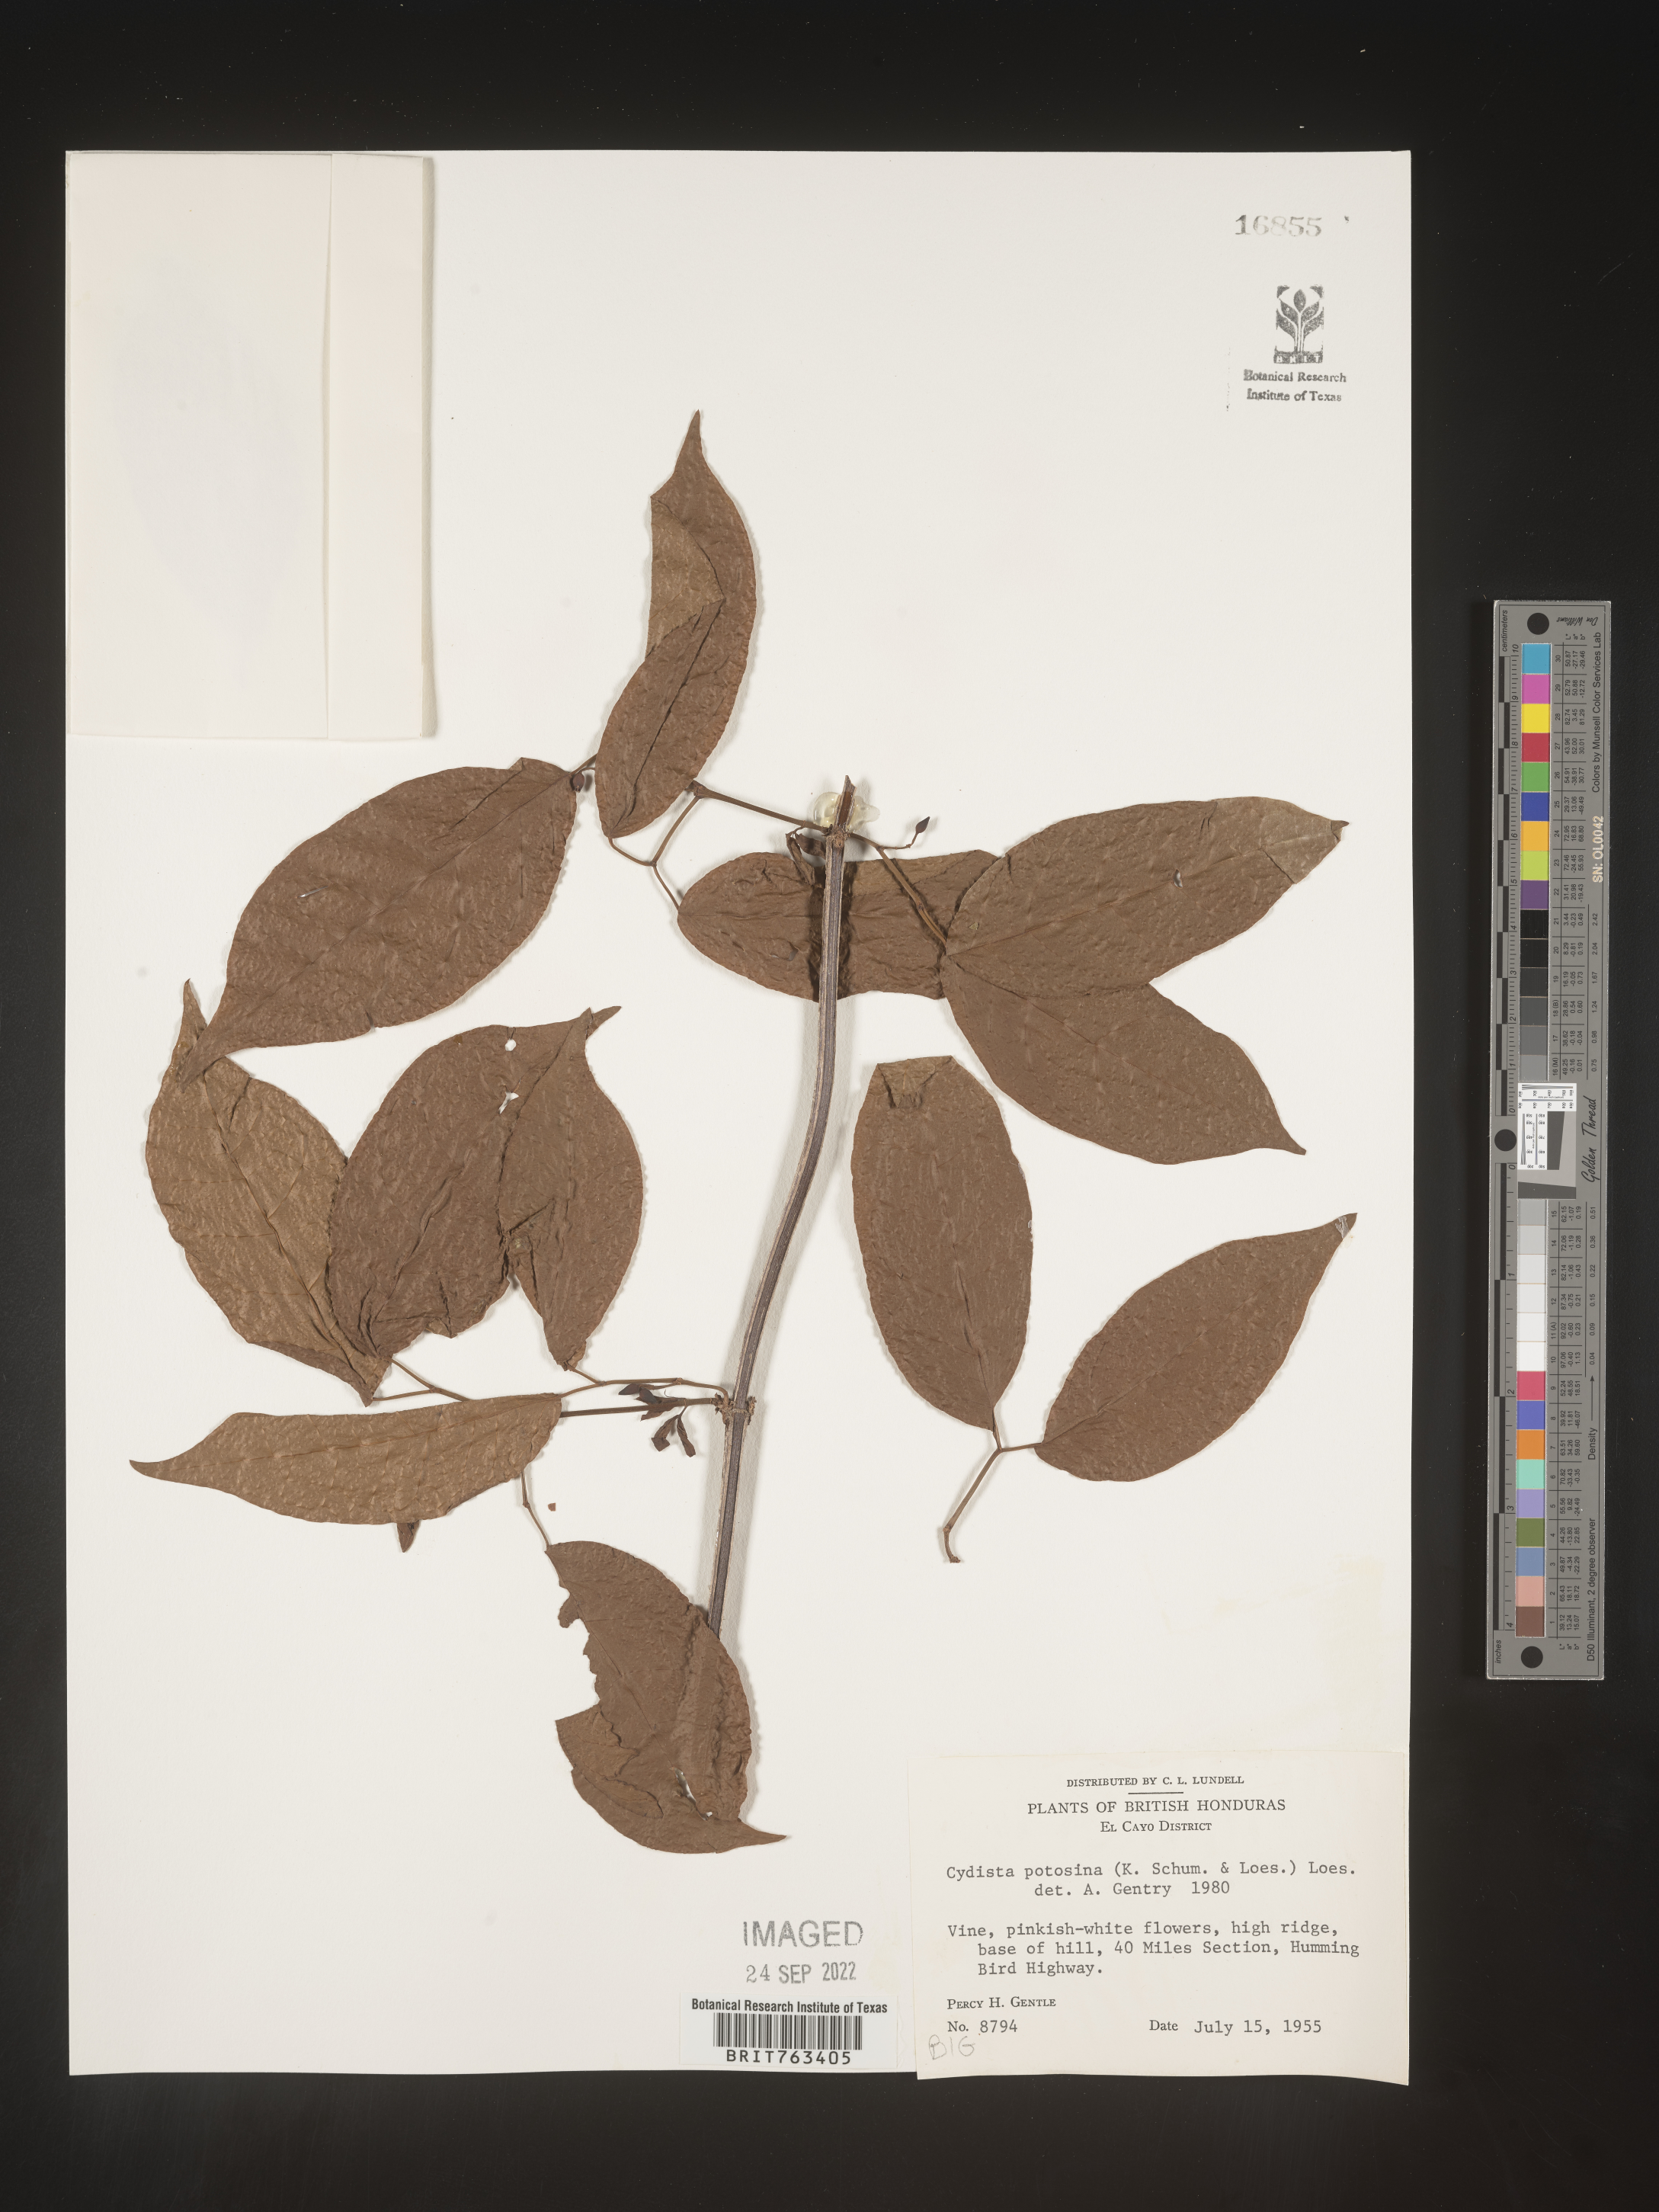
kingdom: Plantae
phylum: Tracheophyta
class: Magnoliopsida
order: Lamiales
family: Bignoniaceae
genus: Bignonia
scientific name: Bignonia
